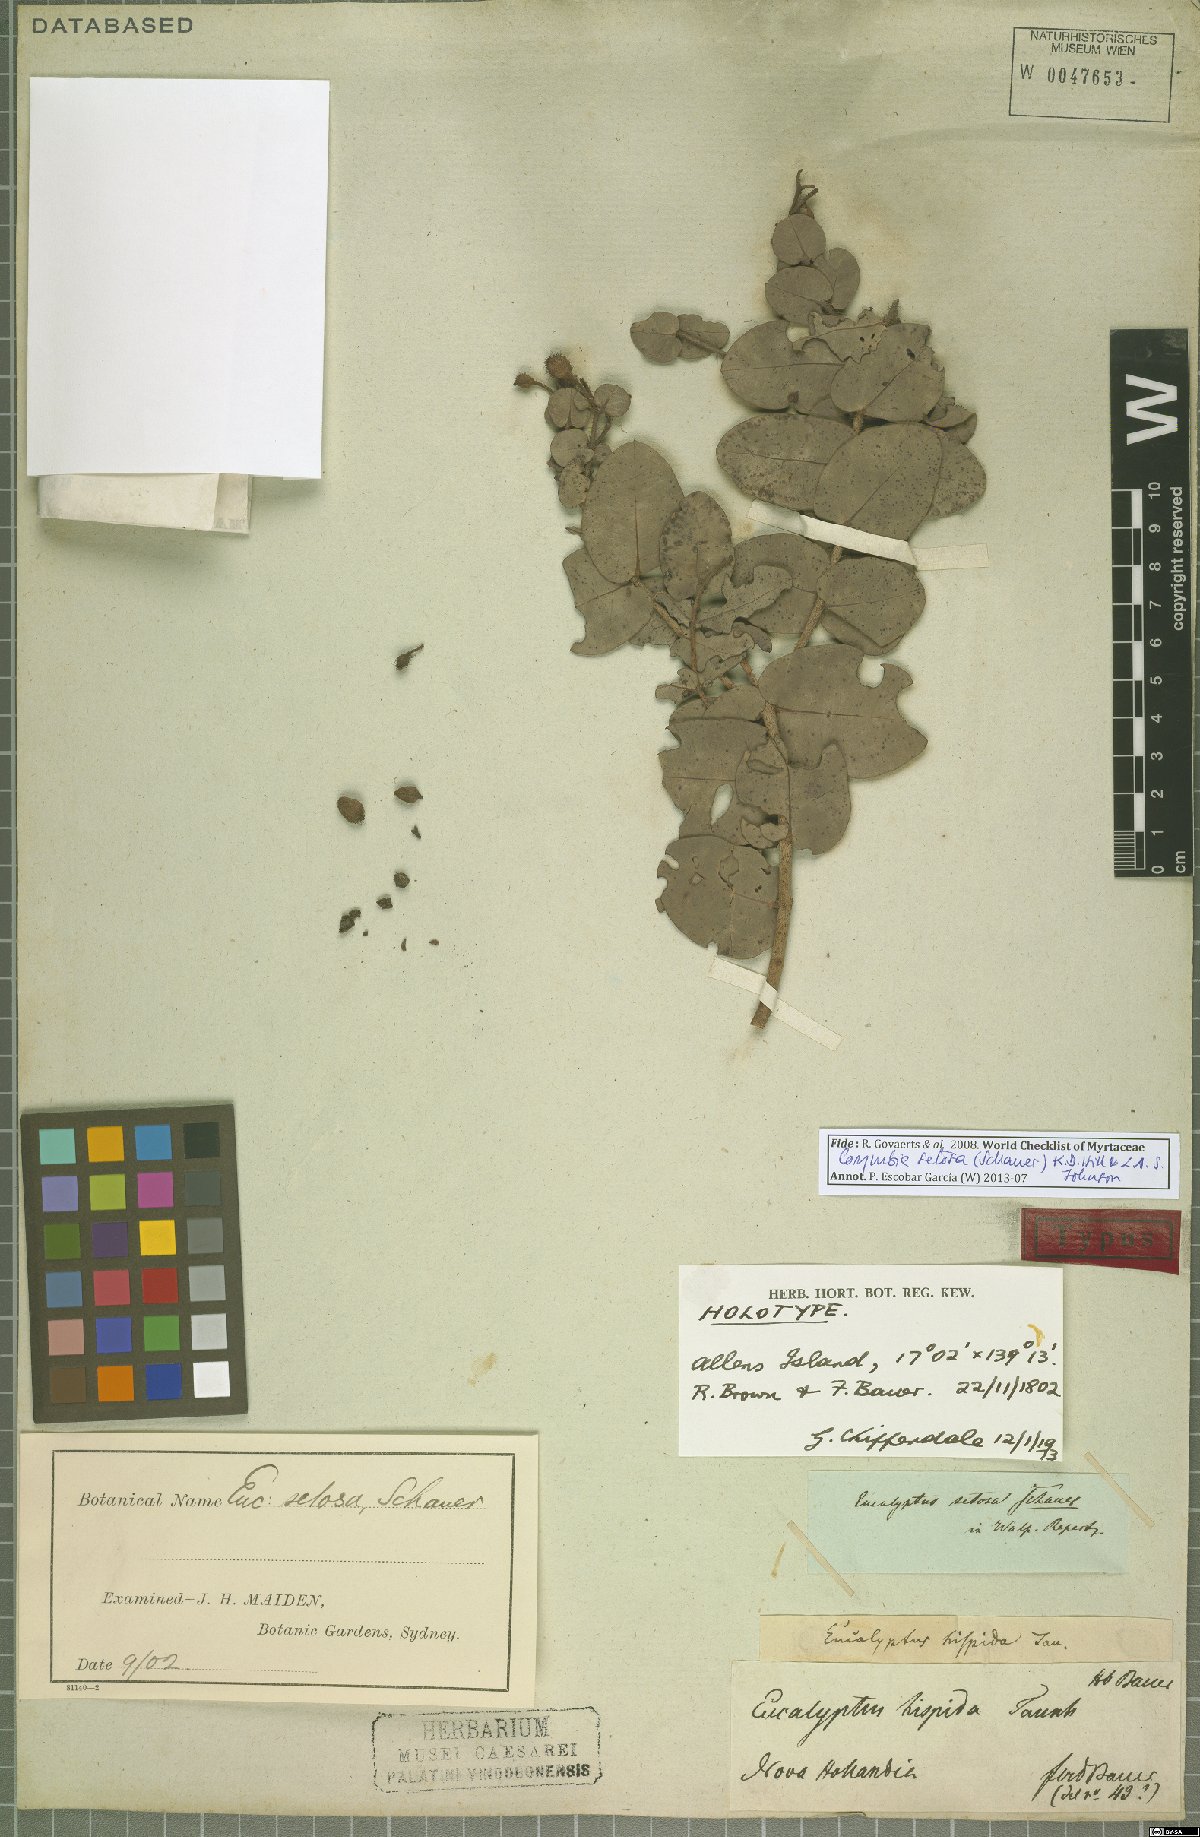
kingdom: Plantae
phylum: Tracheophyta
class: Magnoliopsida
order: Myrtales
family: Myrtaceae
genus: Corymbia
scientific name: Corymbia setosa
